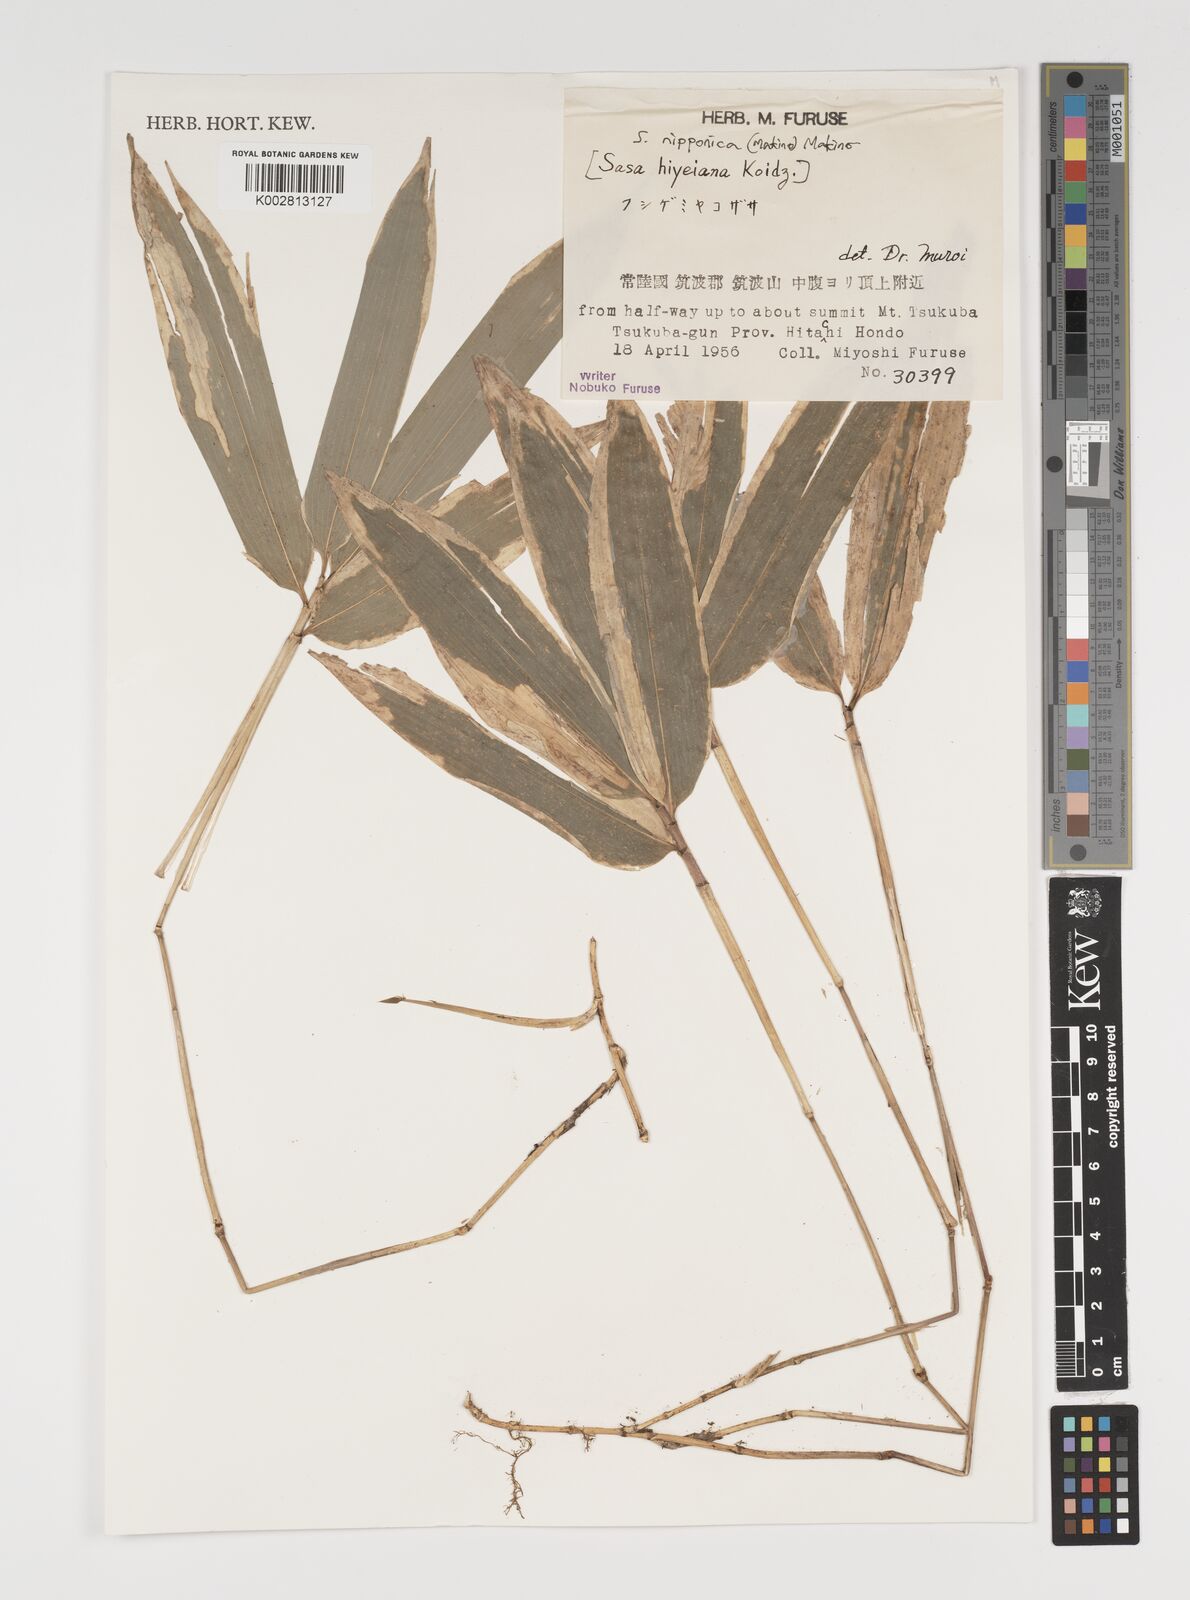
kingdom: Plantae
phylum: Tracheophyta
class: Liliopsida
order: Poales
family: Poaceae
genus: Sasa
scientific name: Sasa nipponica
